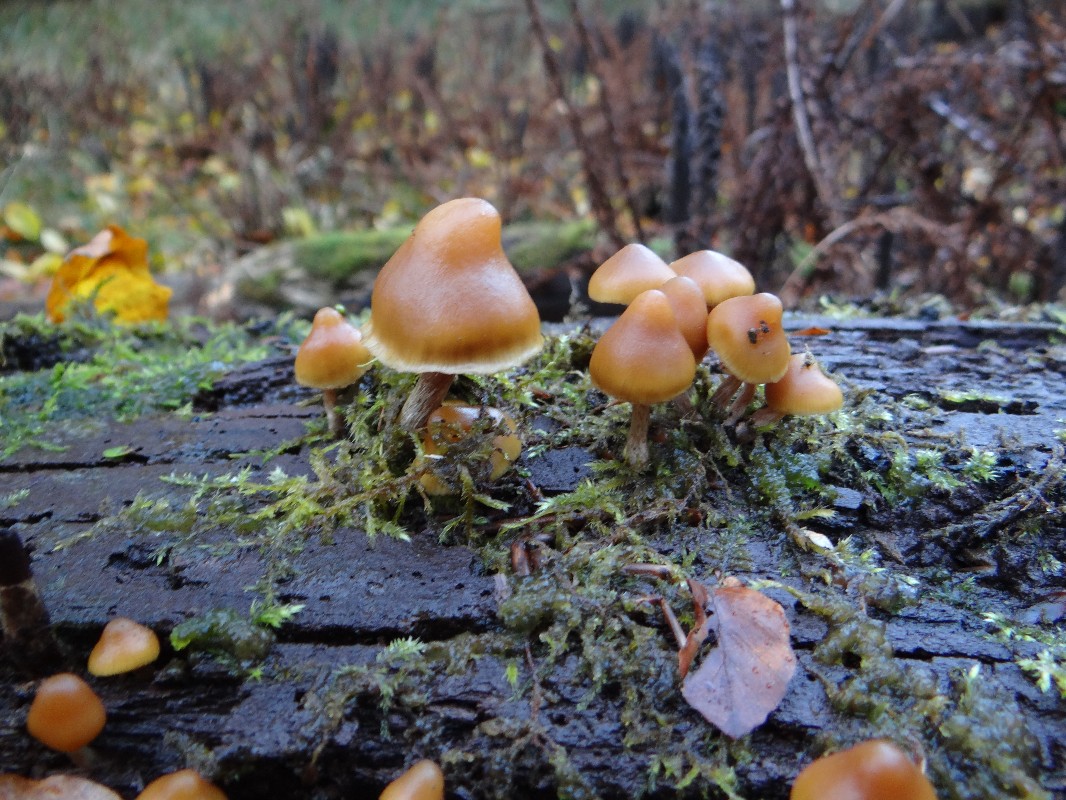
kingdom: Fungi
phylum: Basidiomycota
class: Agaricomycetes
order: Agaricales
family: Strophariaceae
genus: Kuehneromyces
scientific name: Kuehneromyces mutabilis
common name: foranderlig skælhat
